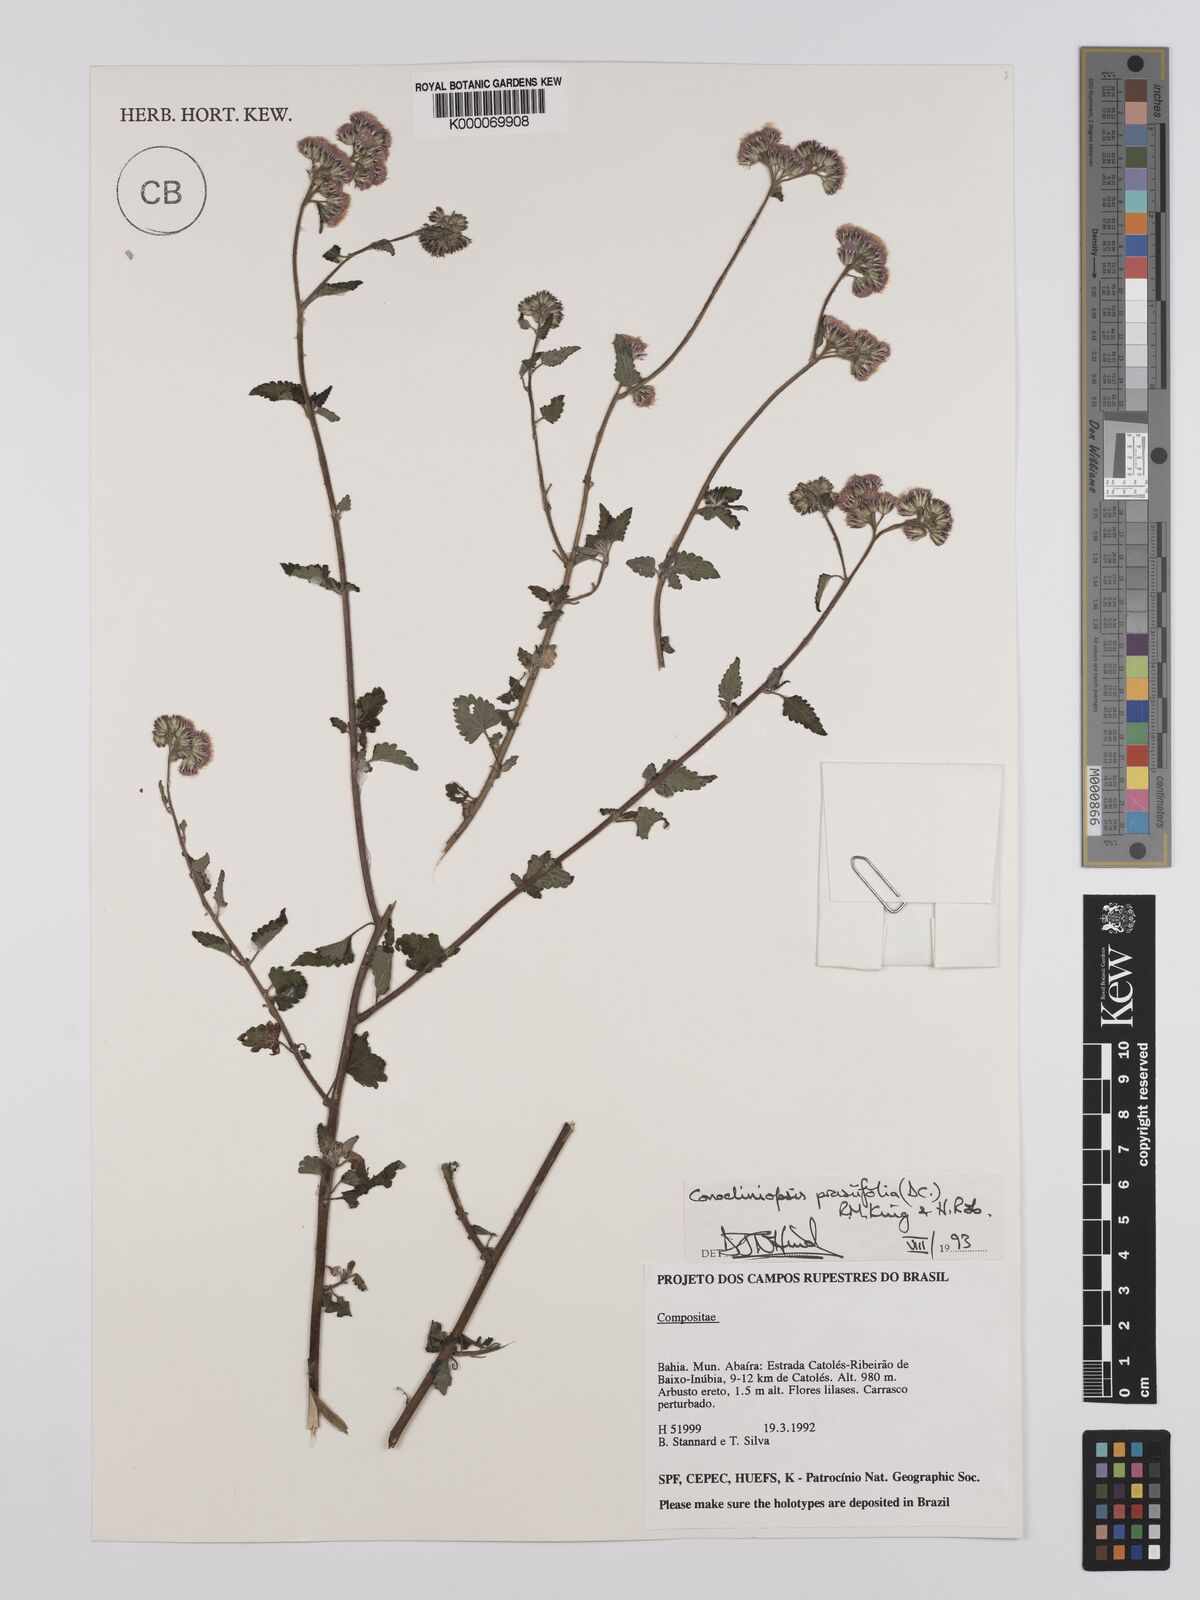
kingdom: Plantae
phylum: Tracheophyta
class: Magnoliopsida
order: Asterales
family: Asteraceae
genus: Conocliniopsis
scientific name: Conocliniopsis grossedentata
